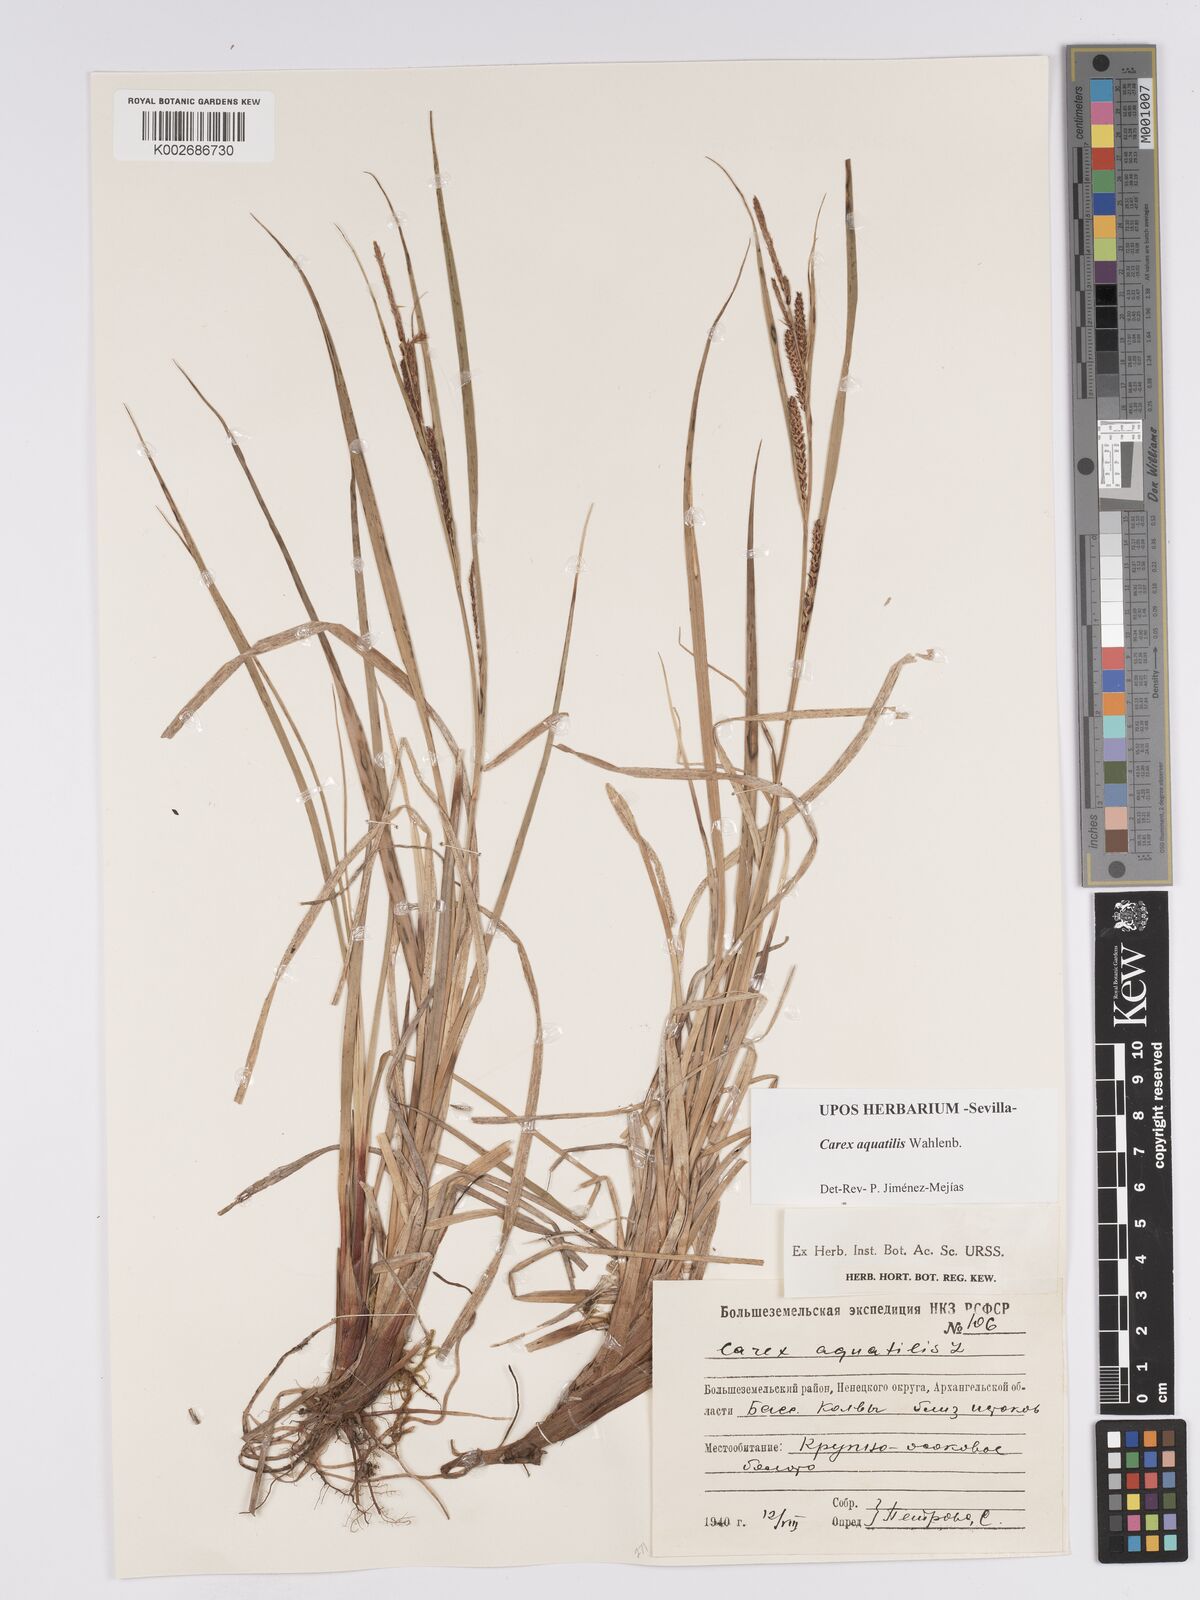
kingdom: Plantae
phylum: Tracheophyta
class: Liliopsida
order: Poales
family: Cyperaceae
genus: Carex
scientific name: Carex aquatilis
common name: Water sedge
